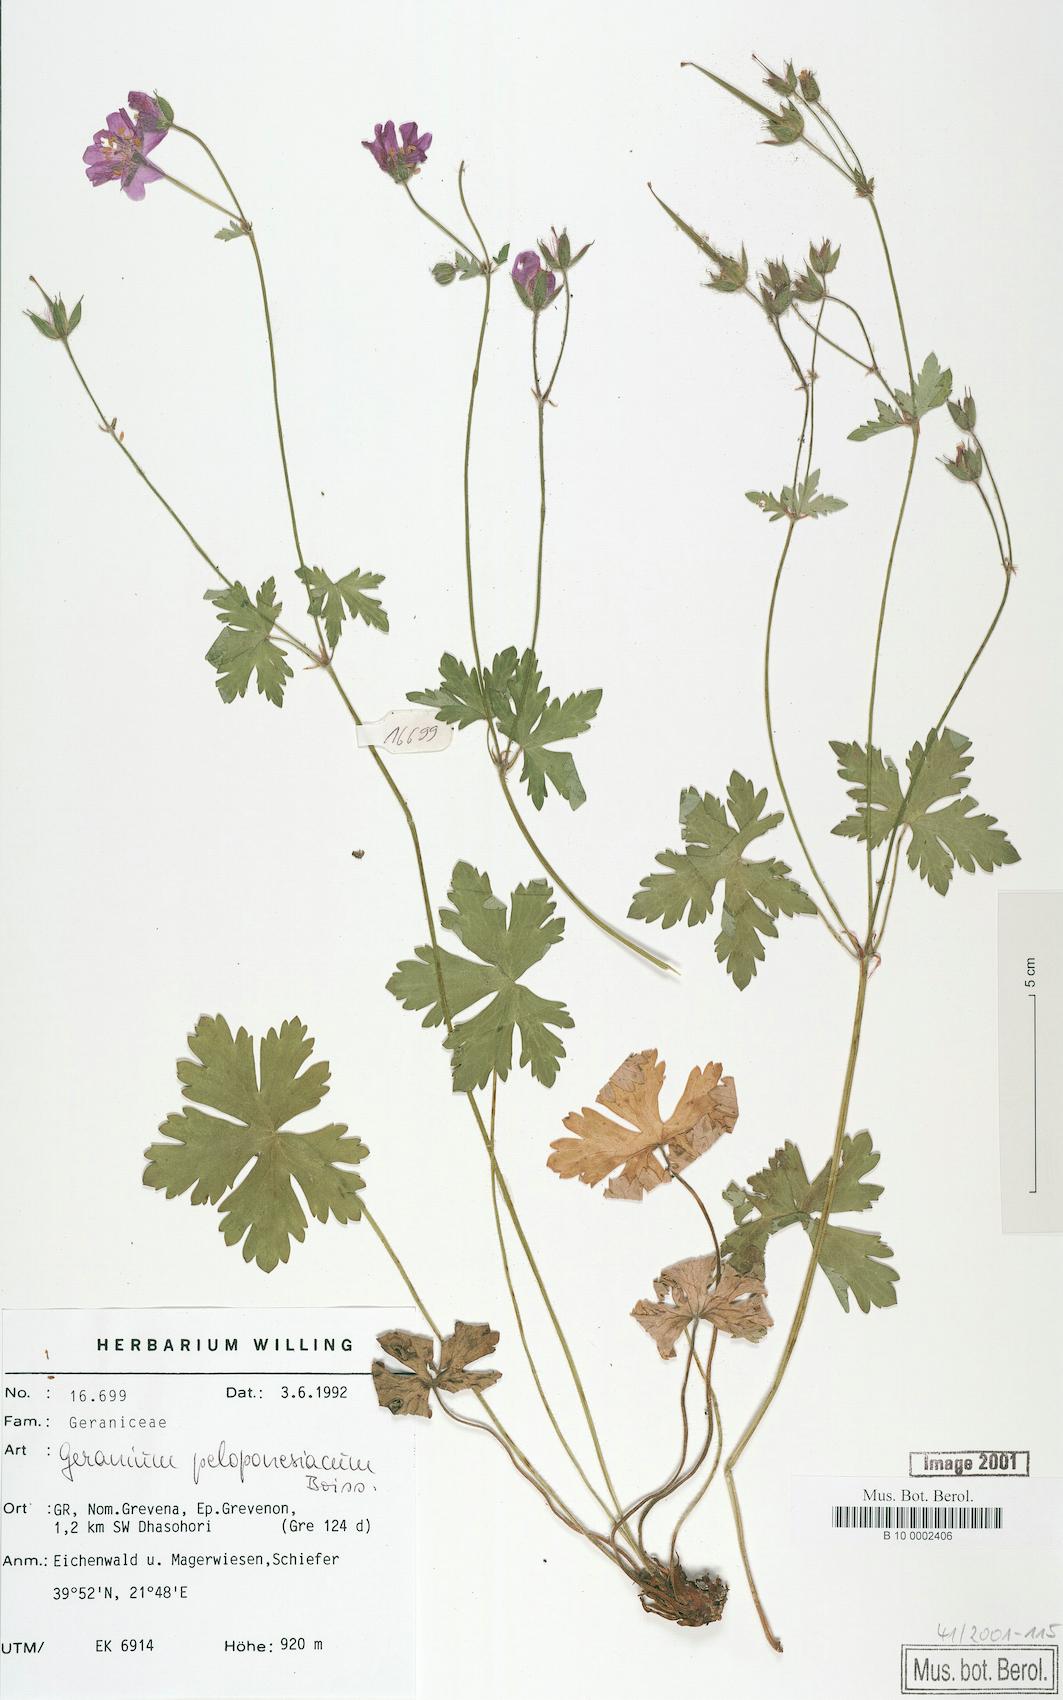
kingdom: Plantae
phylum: Tracheophyta
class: Magnoliopsida
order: Geraniales
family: Geraniaceae
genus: Geranium
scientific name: Geranium peloponnesiacum
